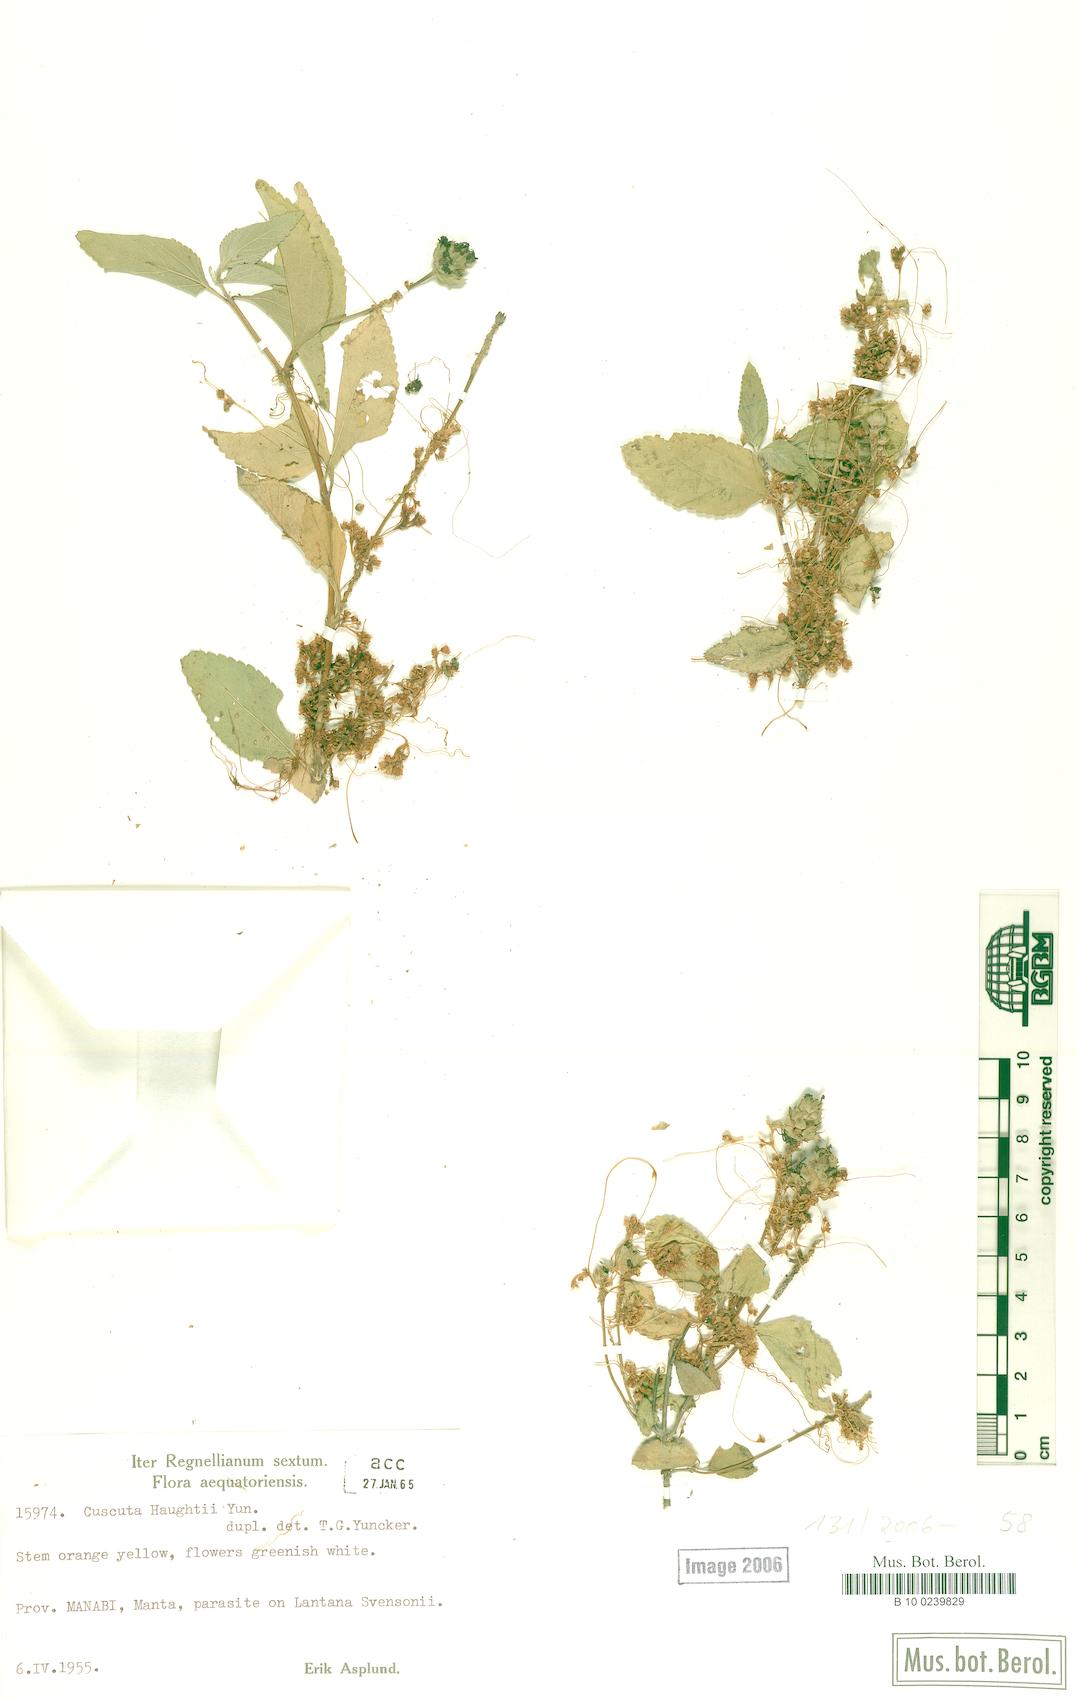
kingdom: Plantae
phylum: Tracheophyta
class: Magnoliopsida
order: Solanales
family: Convolvulaceae
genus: Cuscuta
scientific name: Cuscuta haughtii
